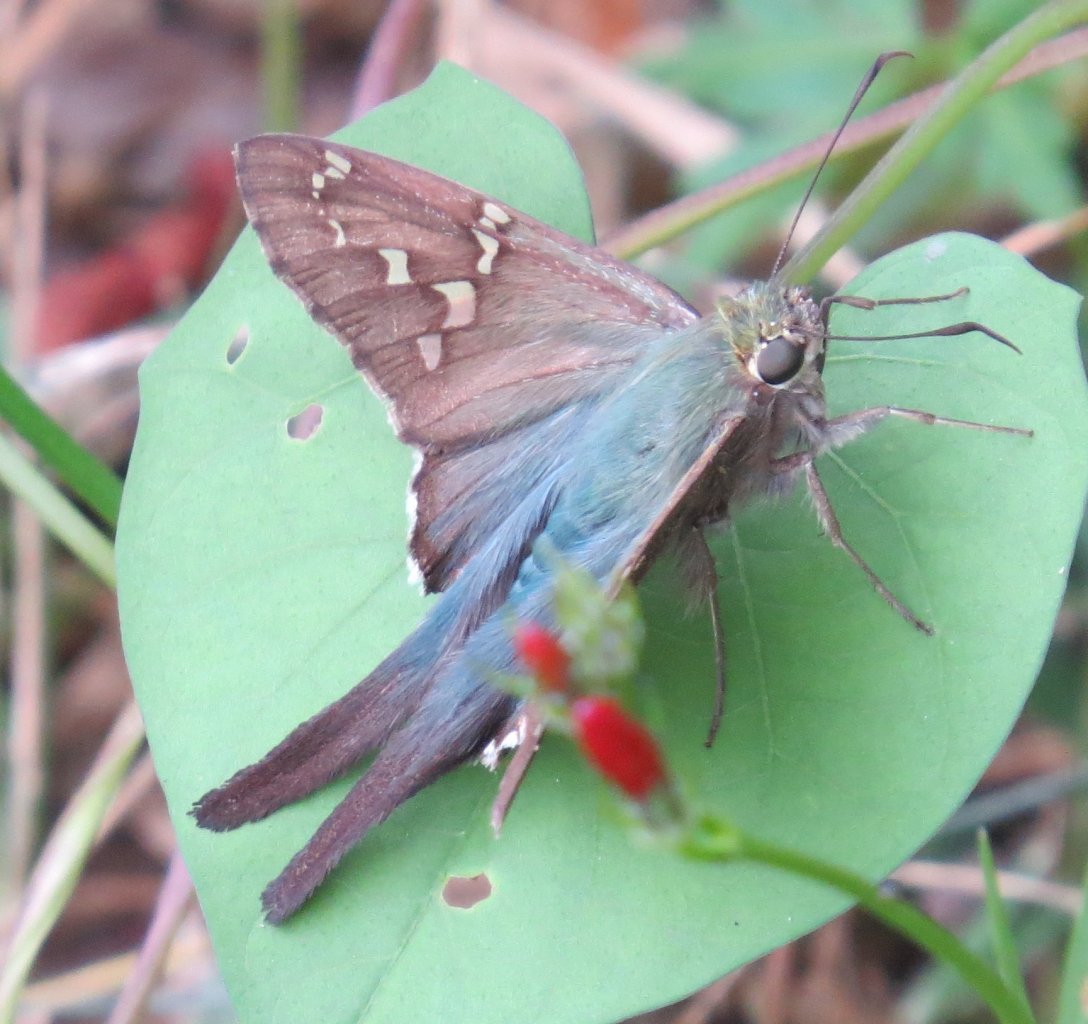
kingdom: Animalia
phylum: Arthropoda
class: Insecta
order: Lepidoptera
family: Hesperiidae
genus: Urbanus
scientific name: Urbanus proteus
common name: Long-tailed Skipper
